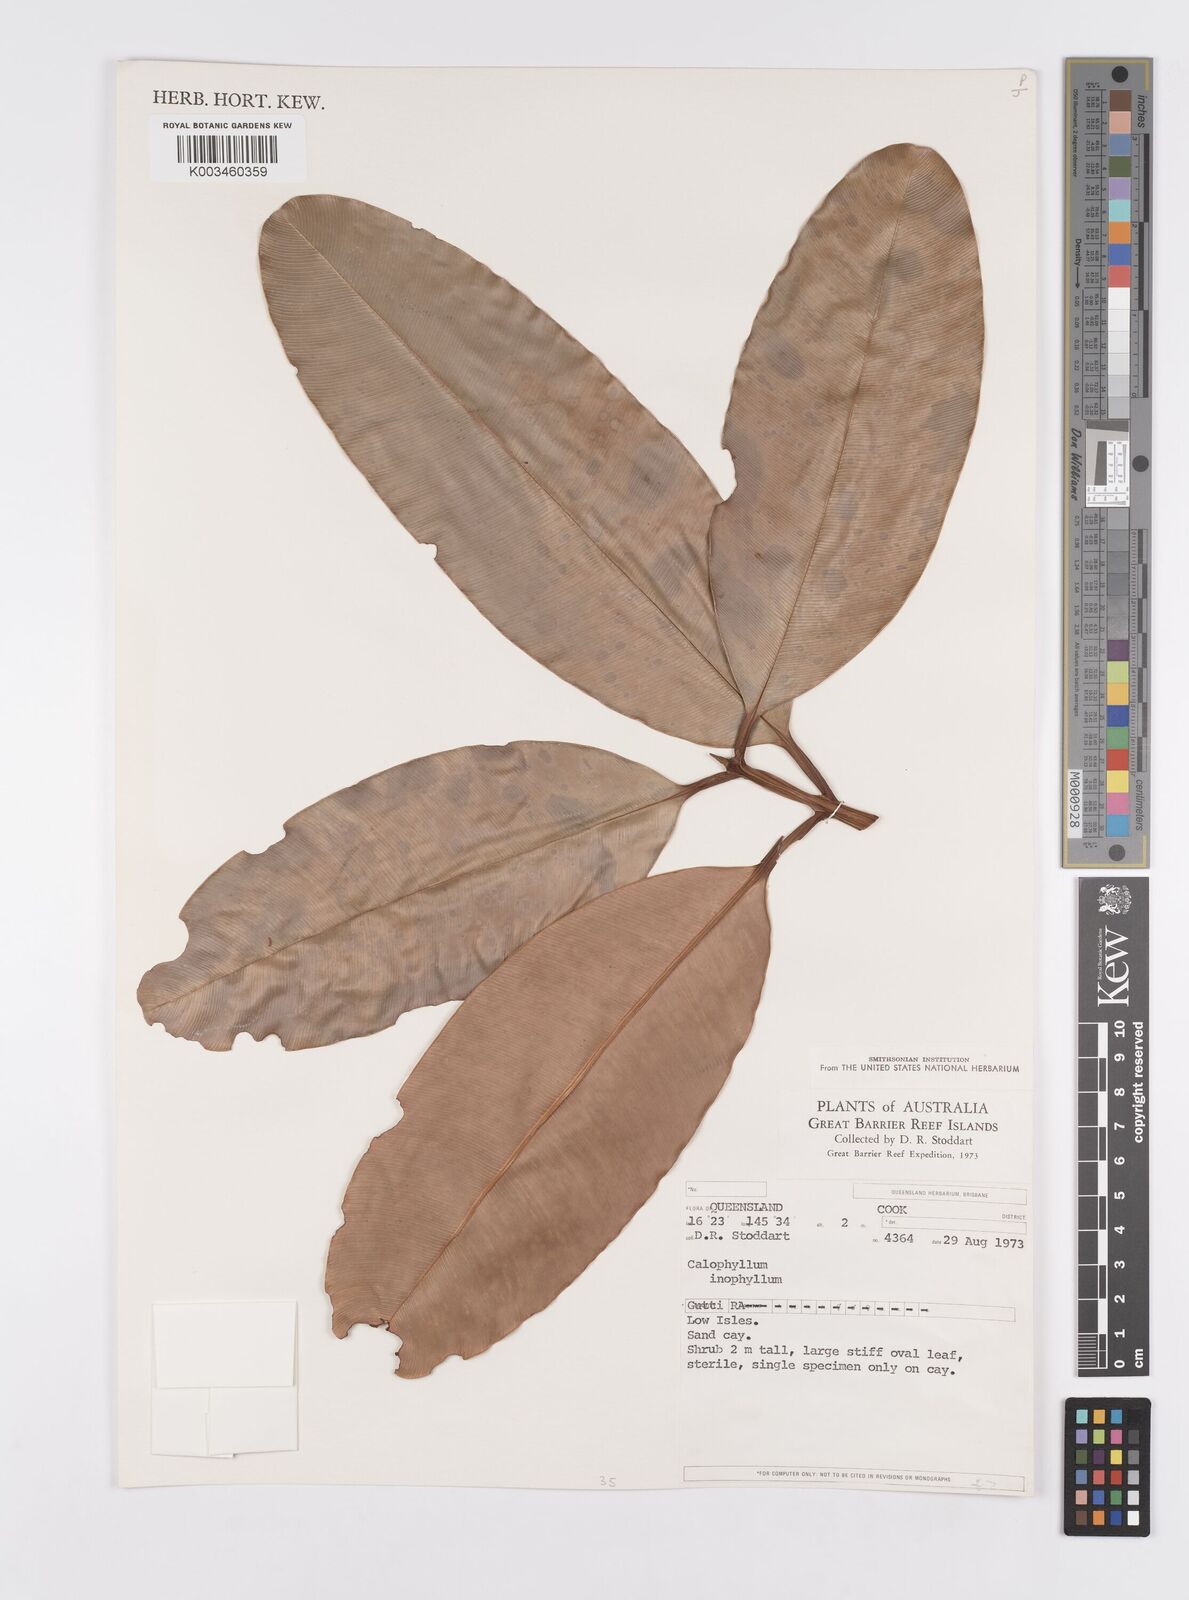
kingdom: Plantae
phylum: Tracheophyta
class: Magnoliopsida
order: Malpighiales
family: Calophyllaceae
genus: Calophyllum
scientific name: Calophyllum inophyllum
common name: Alexandrian laurel
